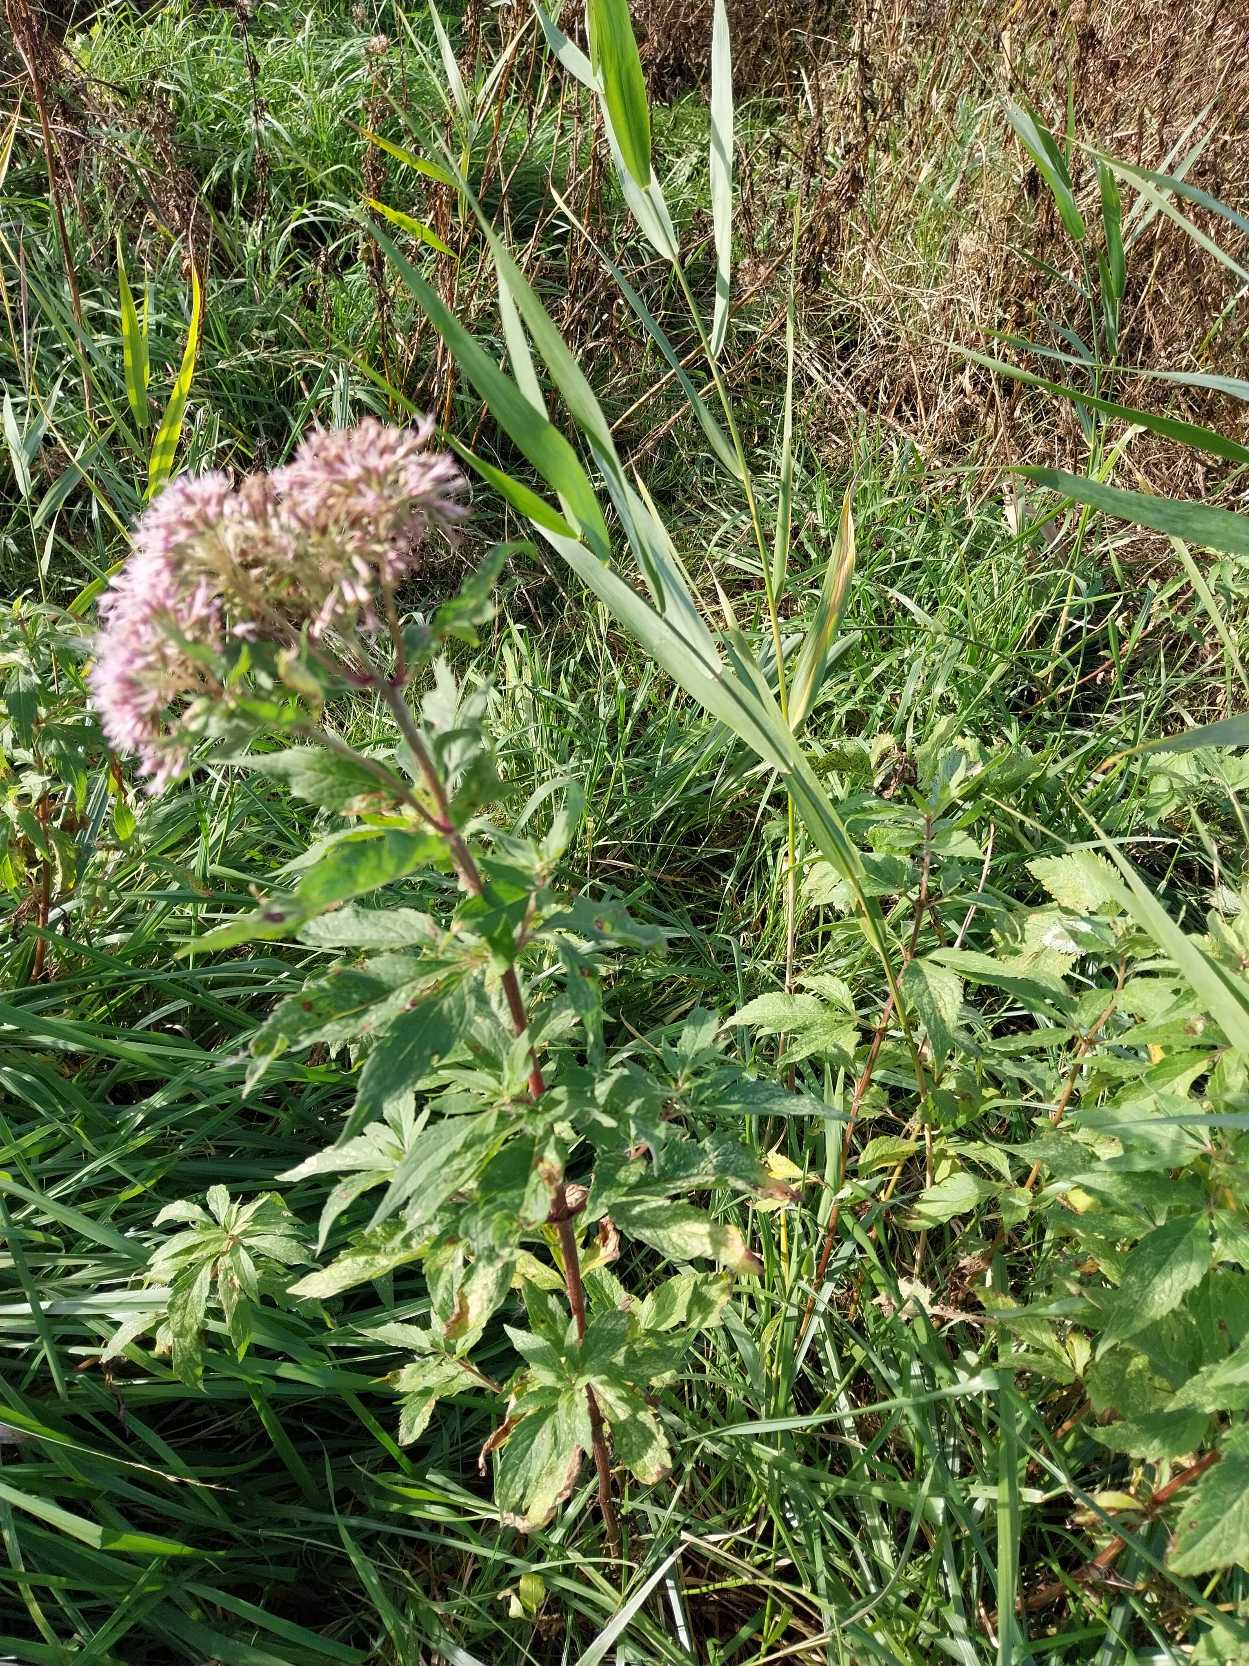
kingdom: Plantae
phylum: Tracheophyta
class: Magnoliopsida
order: Asterales
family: Asteraceae
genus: Eupatorium
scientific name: Eupatorium cannabinum
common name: Hjortetrøst
